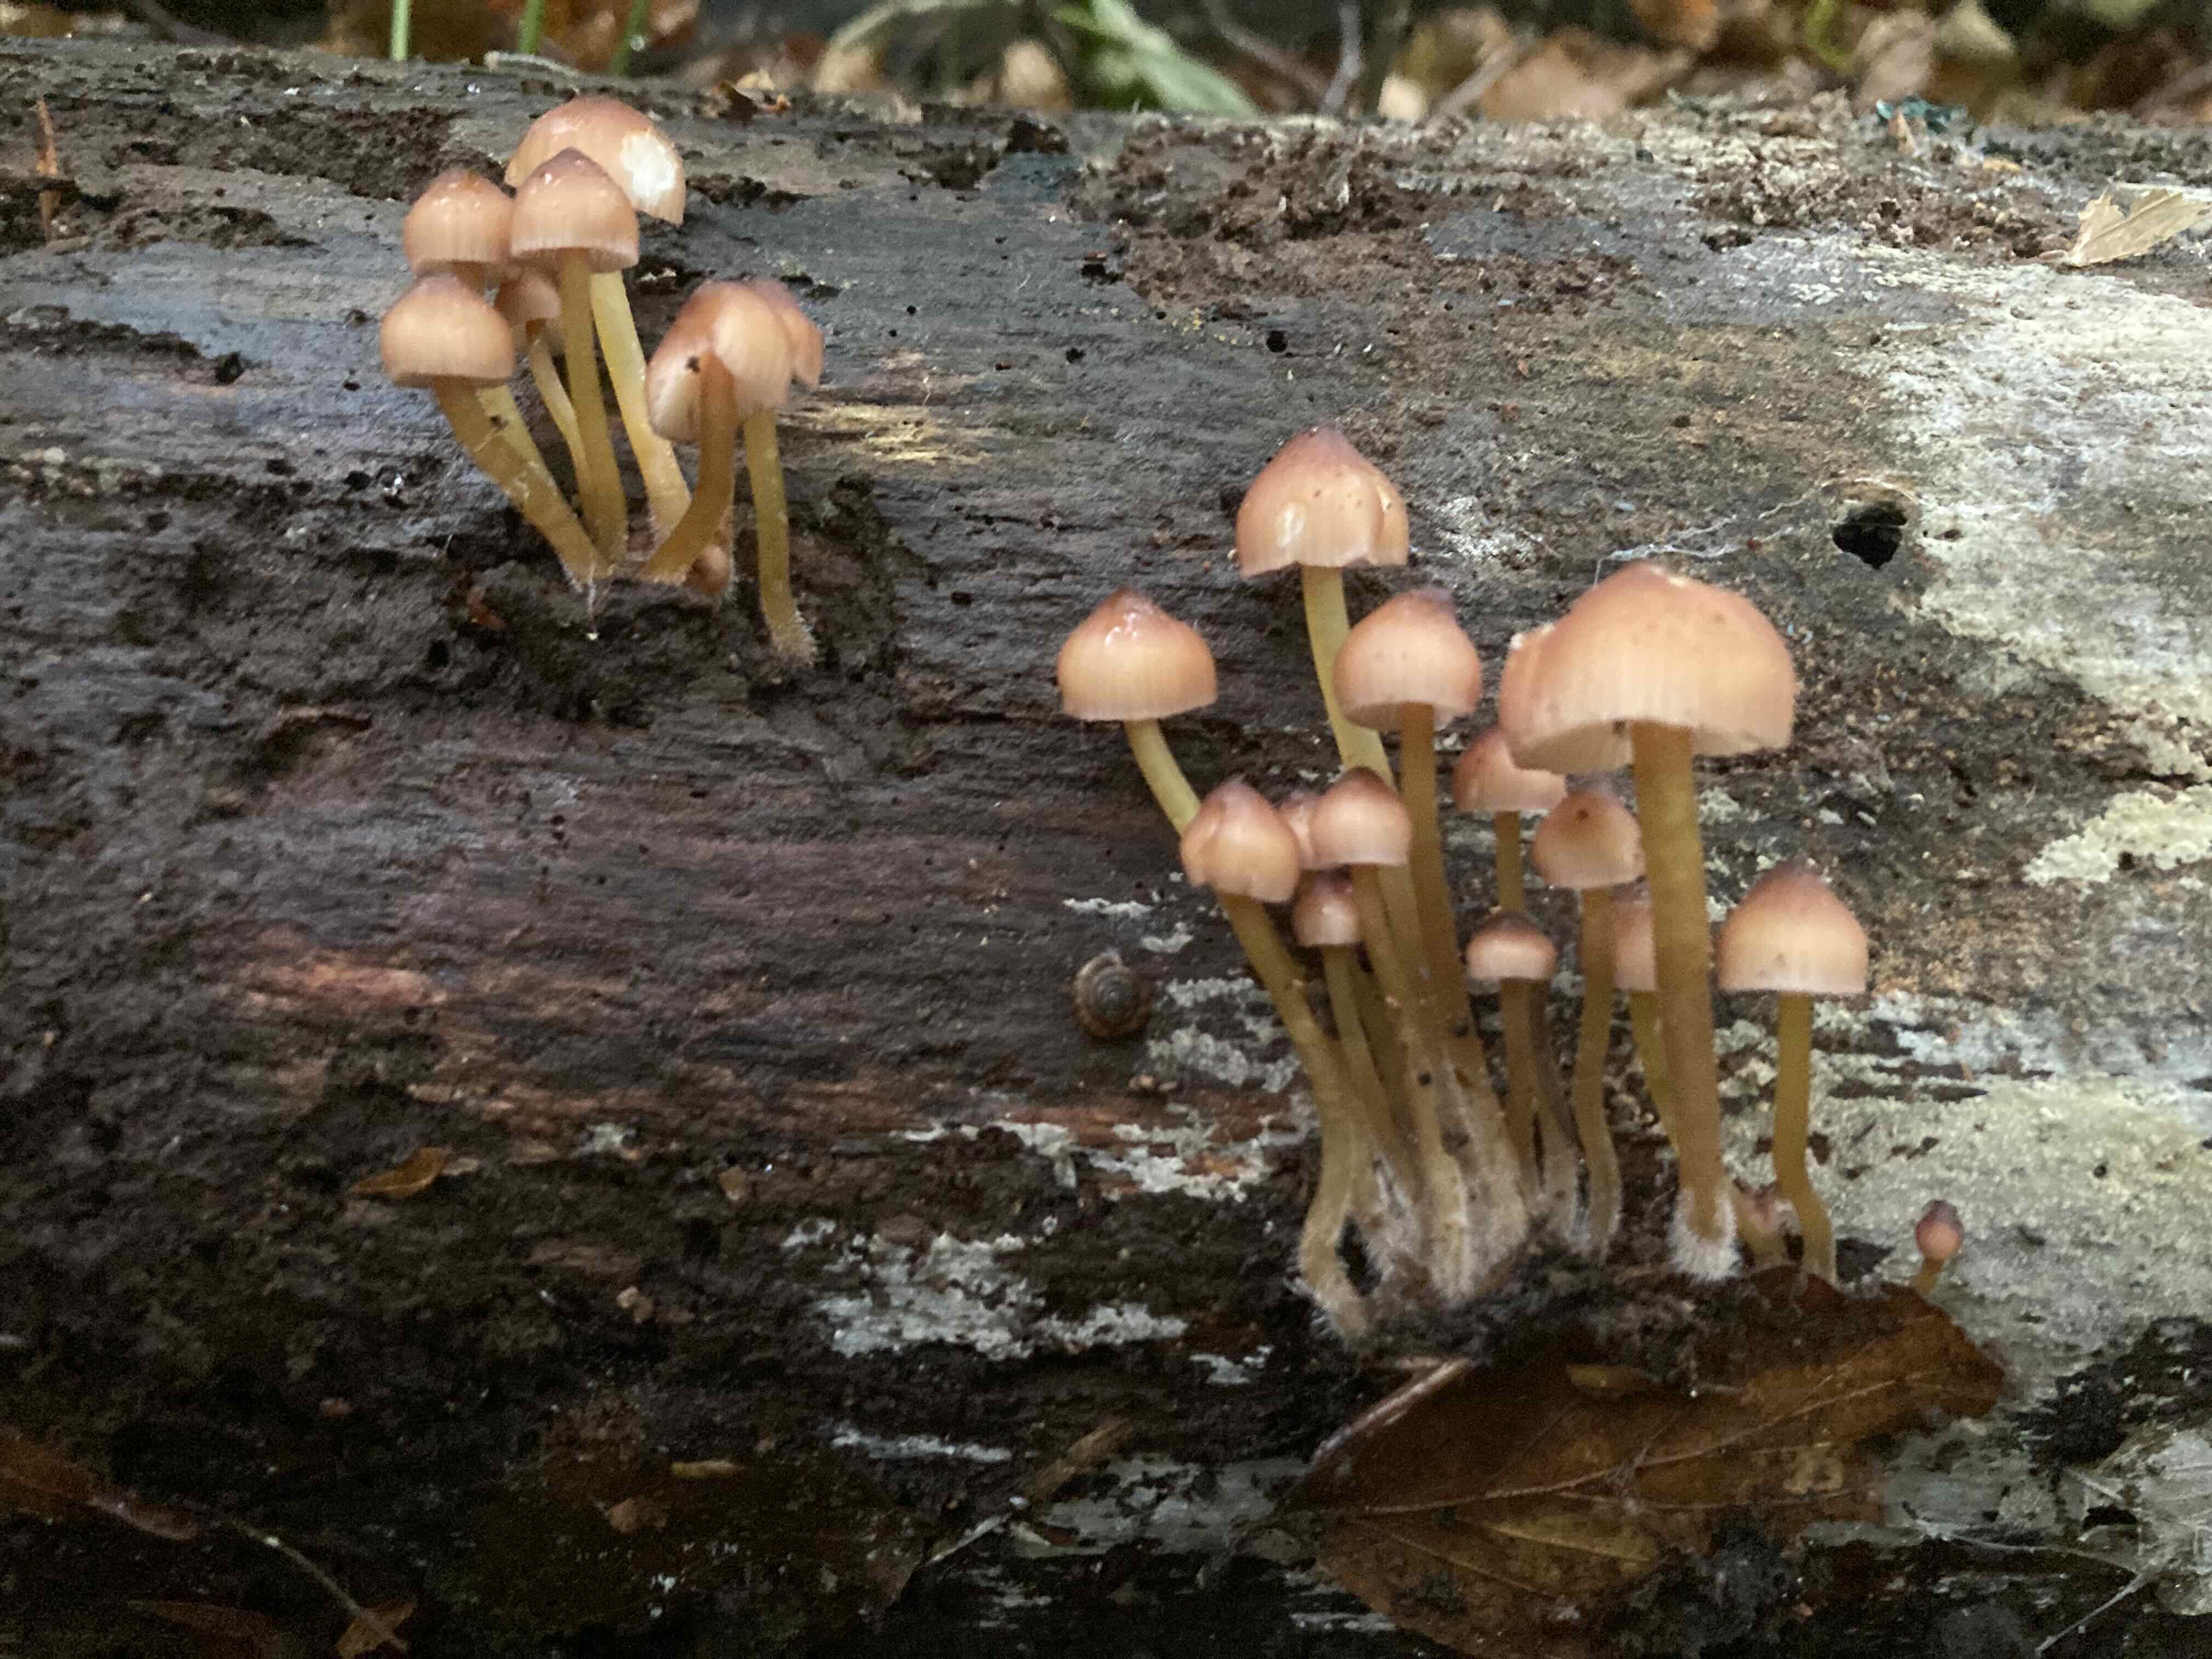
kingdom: Fungi
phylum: Basidiomycota
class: Agaricomycetes
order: Agaricales
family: Mycenaceae
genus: Mycena
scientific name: Mycena renati
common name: smuk huesvamp
